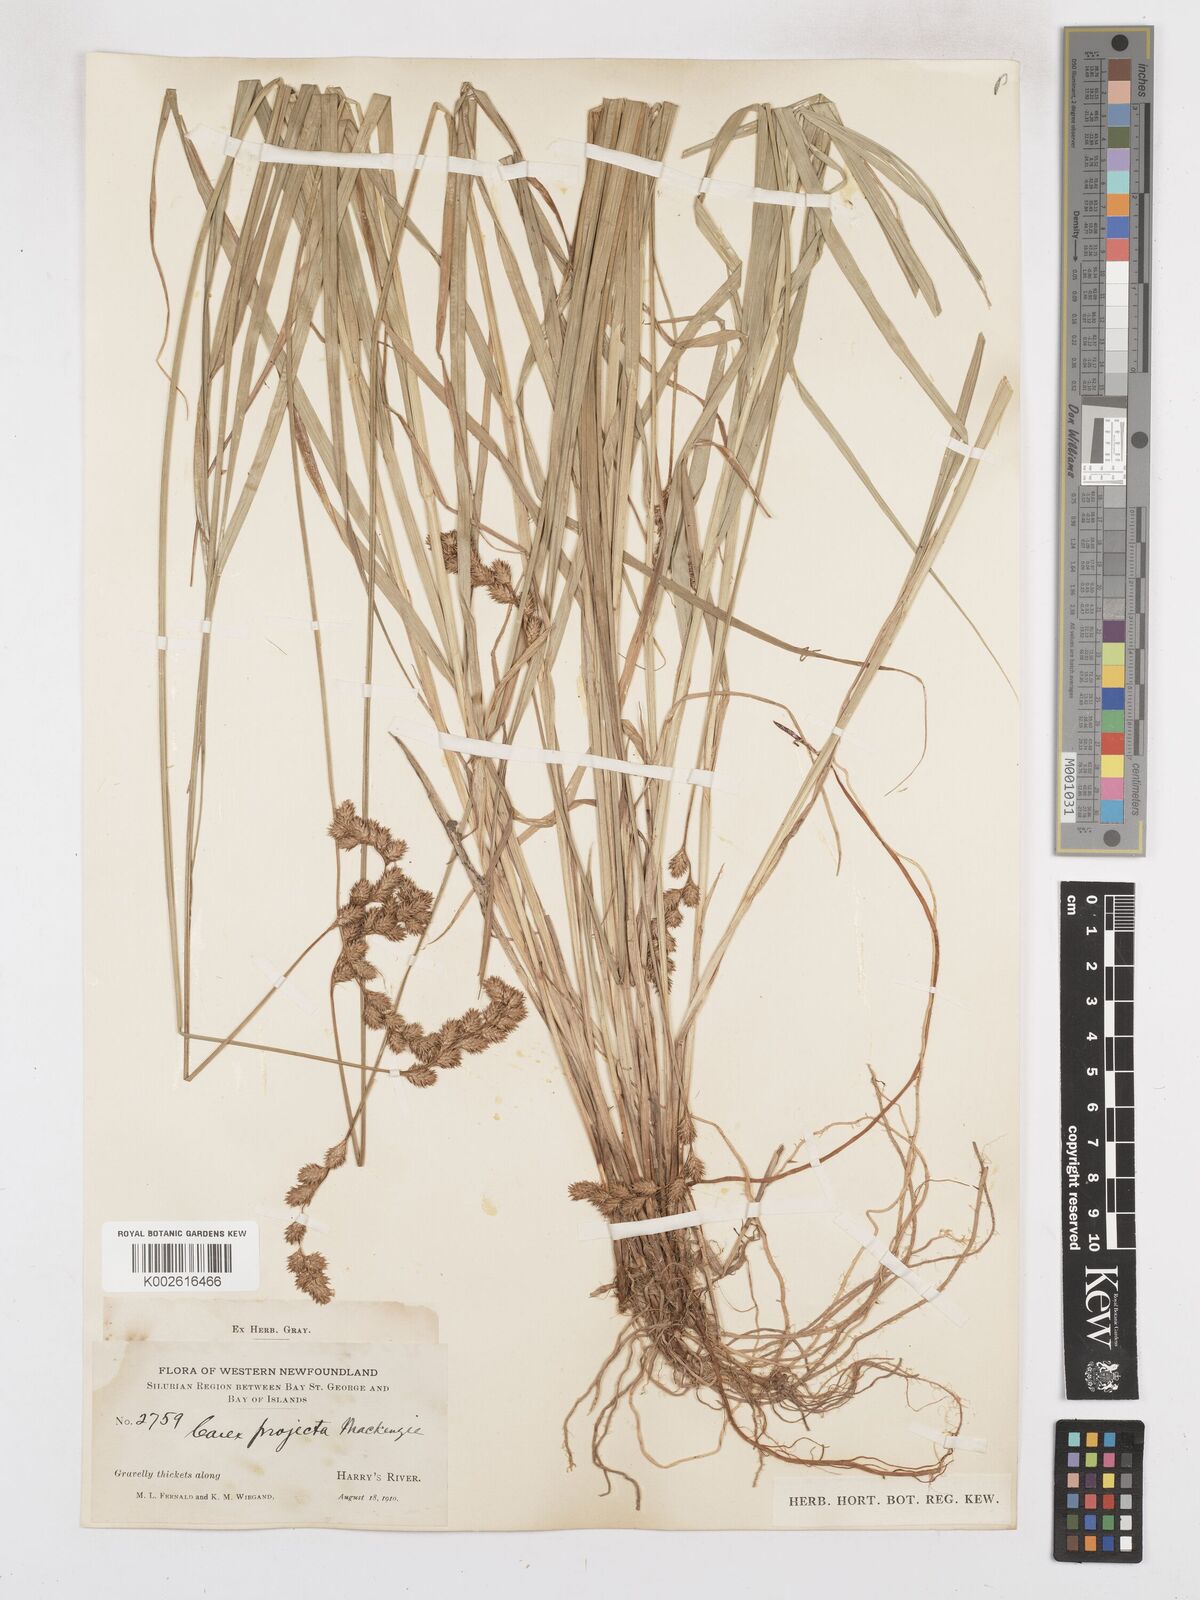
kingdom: Plantae
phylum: Tracheophyta
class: Liliopsida
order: Poales
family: Cyperaceae
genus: Carex
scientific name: Carex projecta
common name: Loose-headed oval sedge
